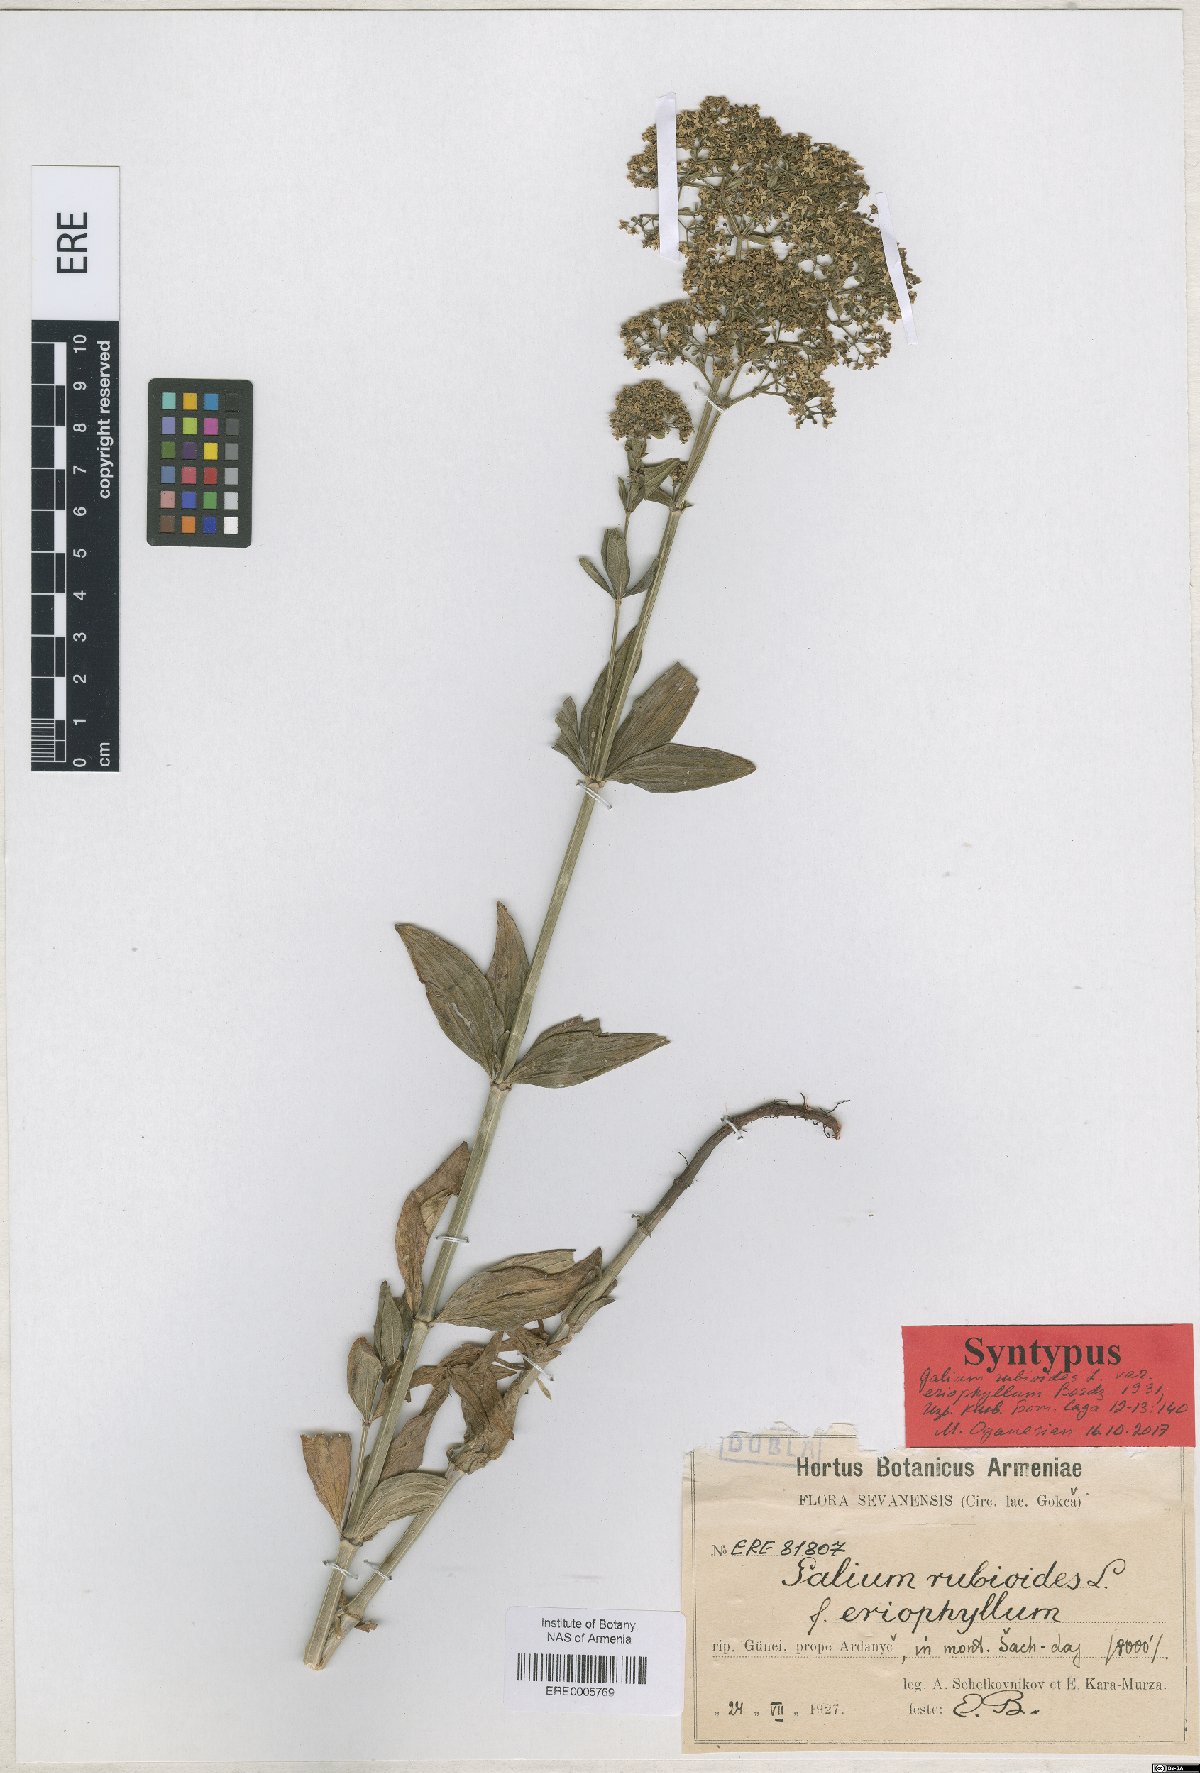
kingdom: Plantae
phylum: Tracheophyta
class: Magnoliopsida
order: Gentianales
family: Rubiaceae
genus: Galium
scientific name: Galium rubioides
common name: European bedstraw
